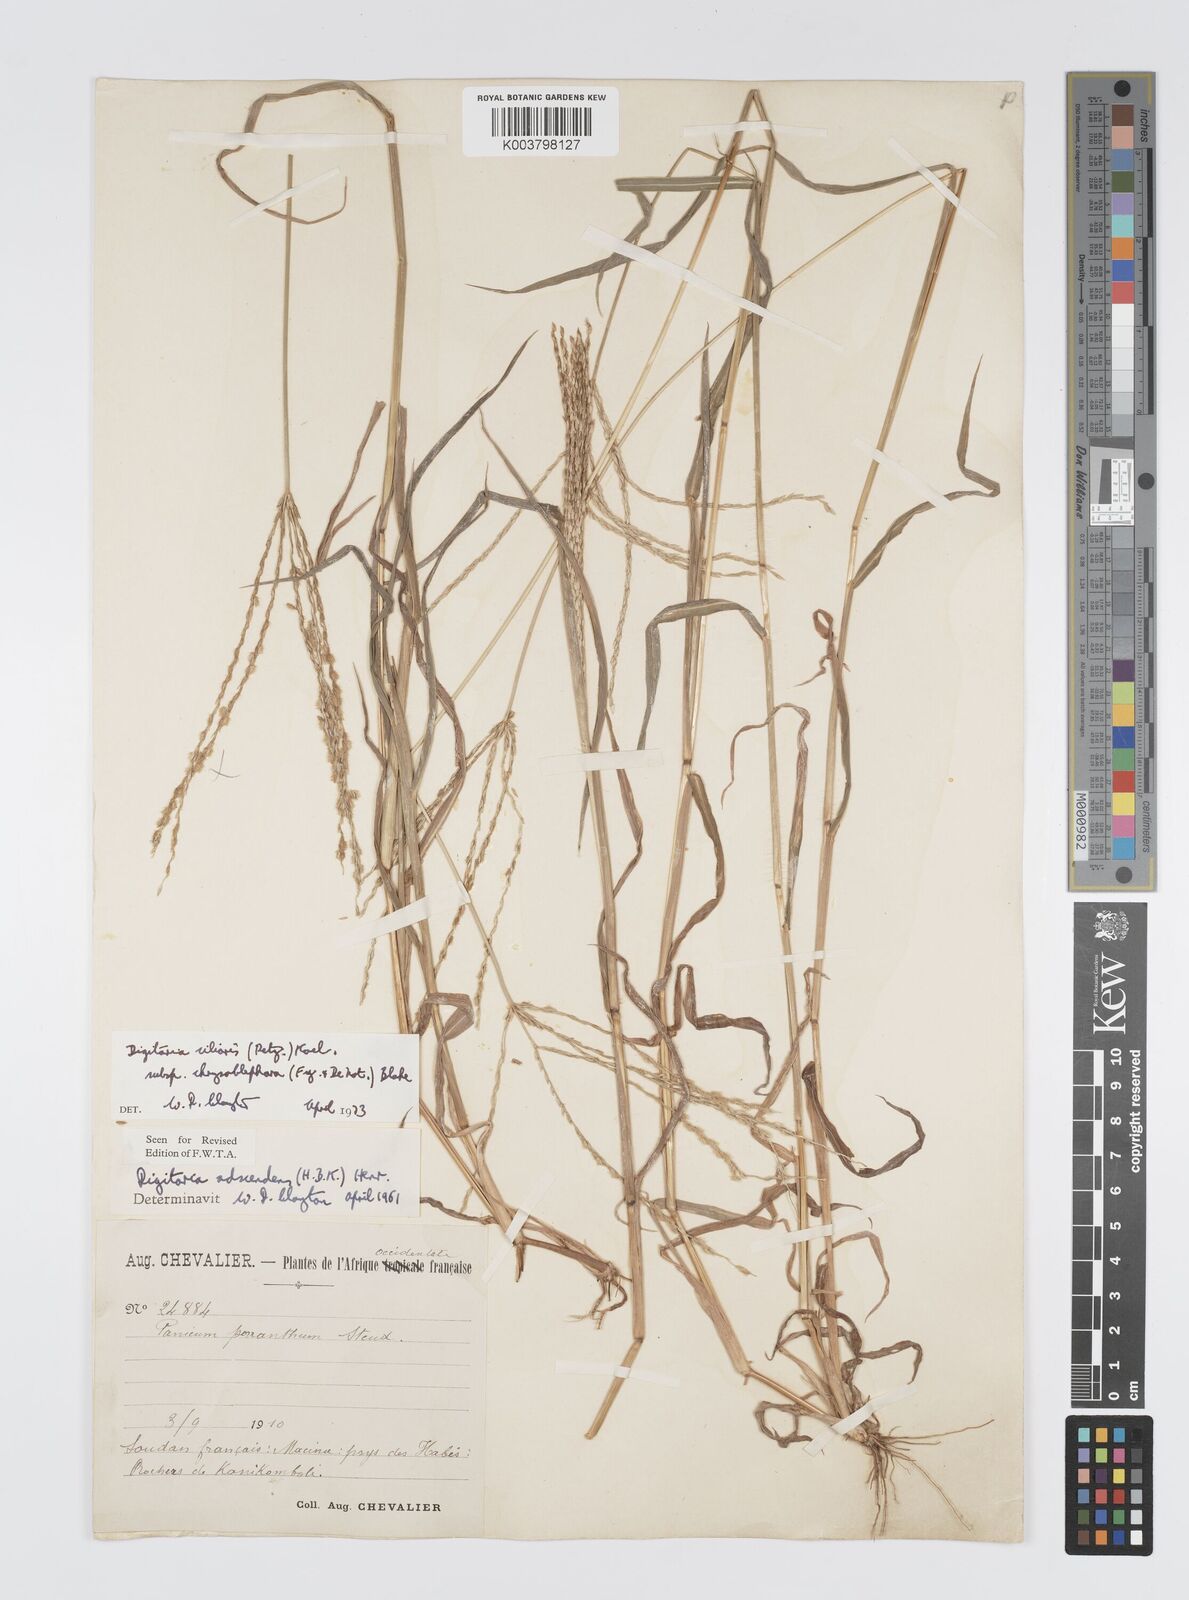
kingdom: Plantae
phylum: Tracheophyta
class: Liliopsida
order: Poales
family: Poaceae
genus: Digitaria
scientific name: Digitaria ciliaris
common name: Tropical finger-grass
